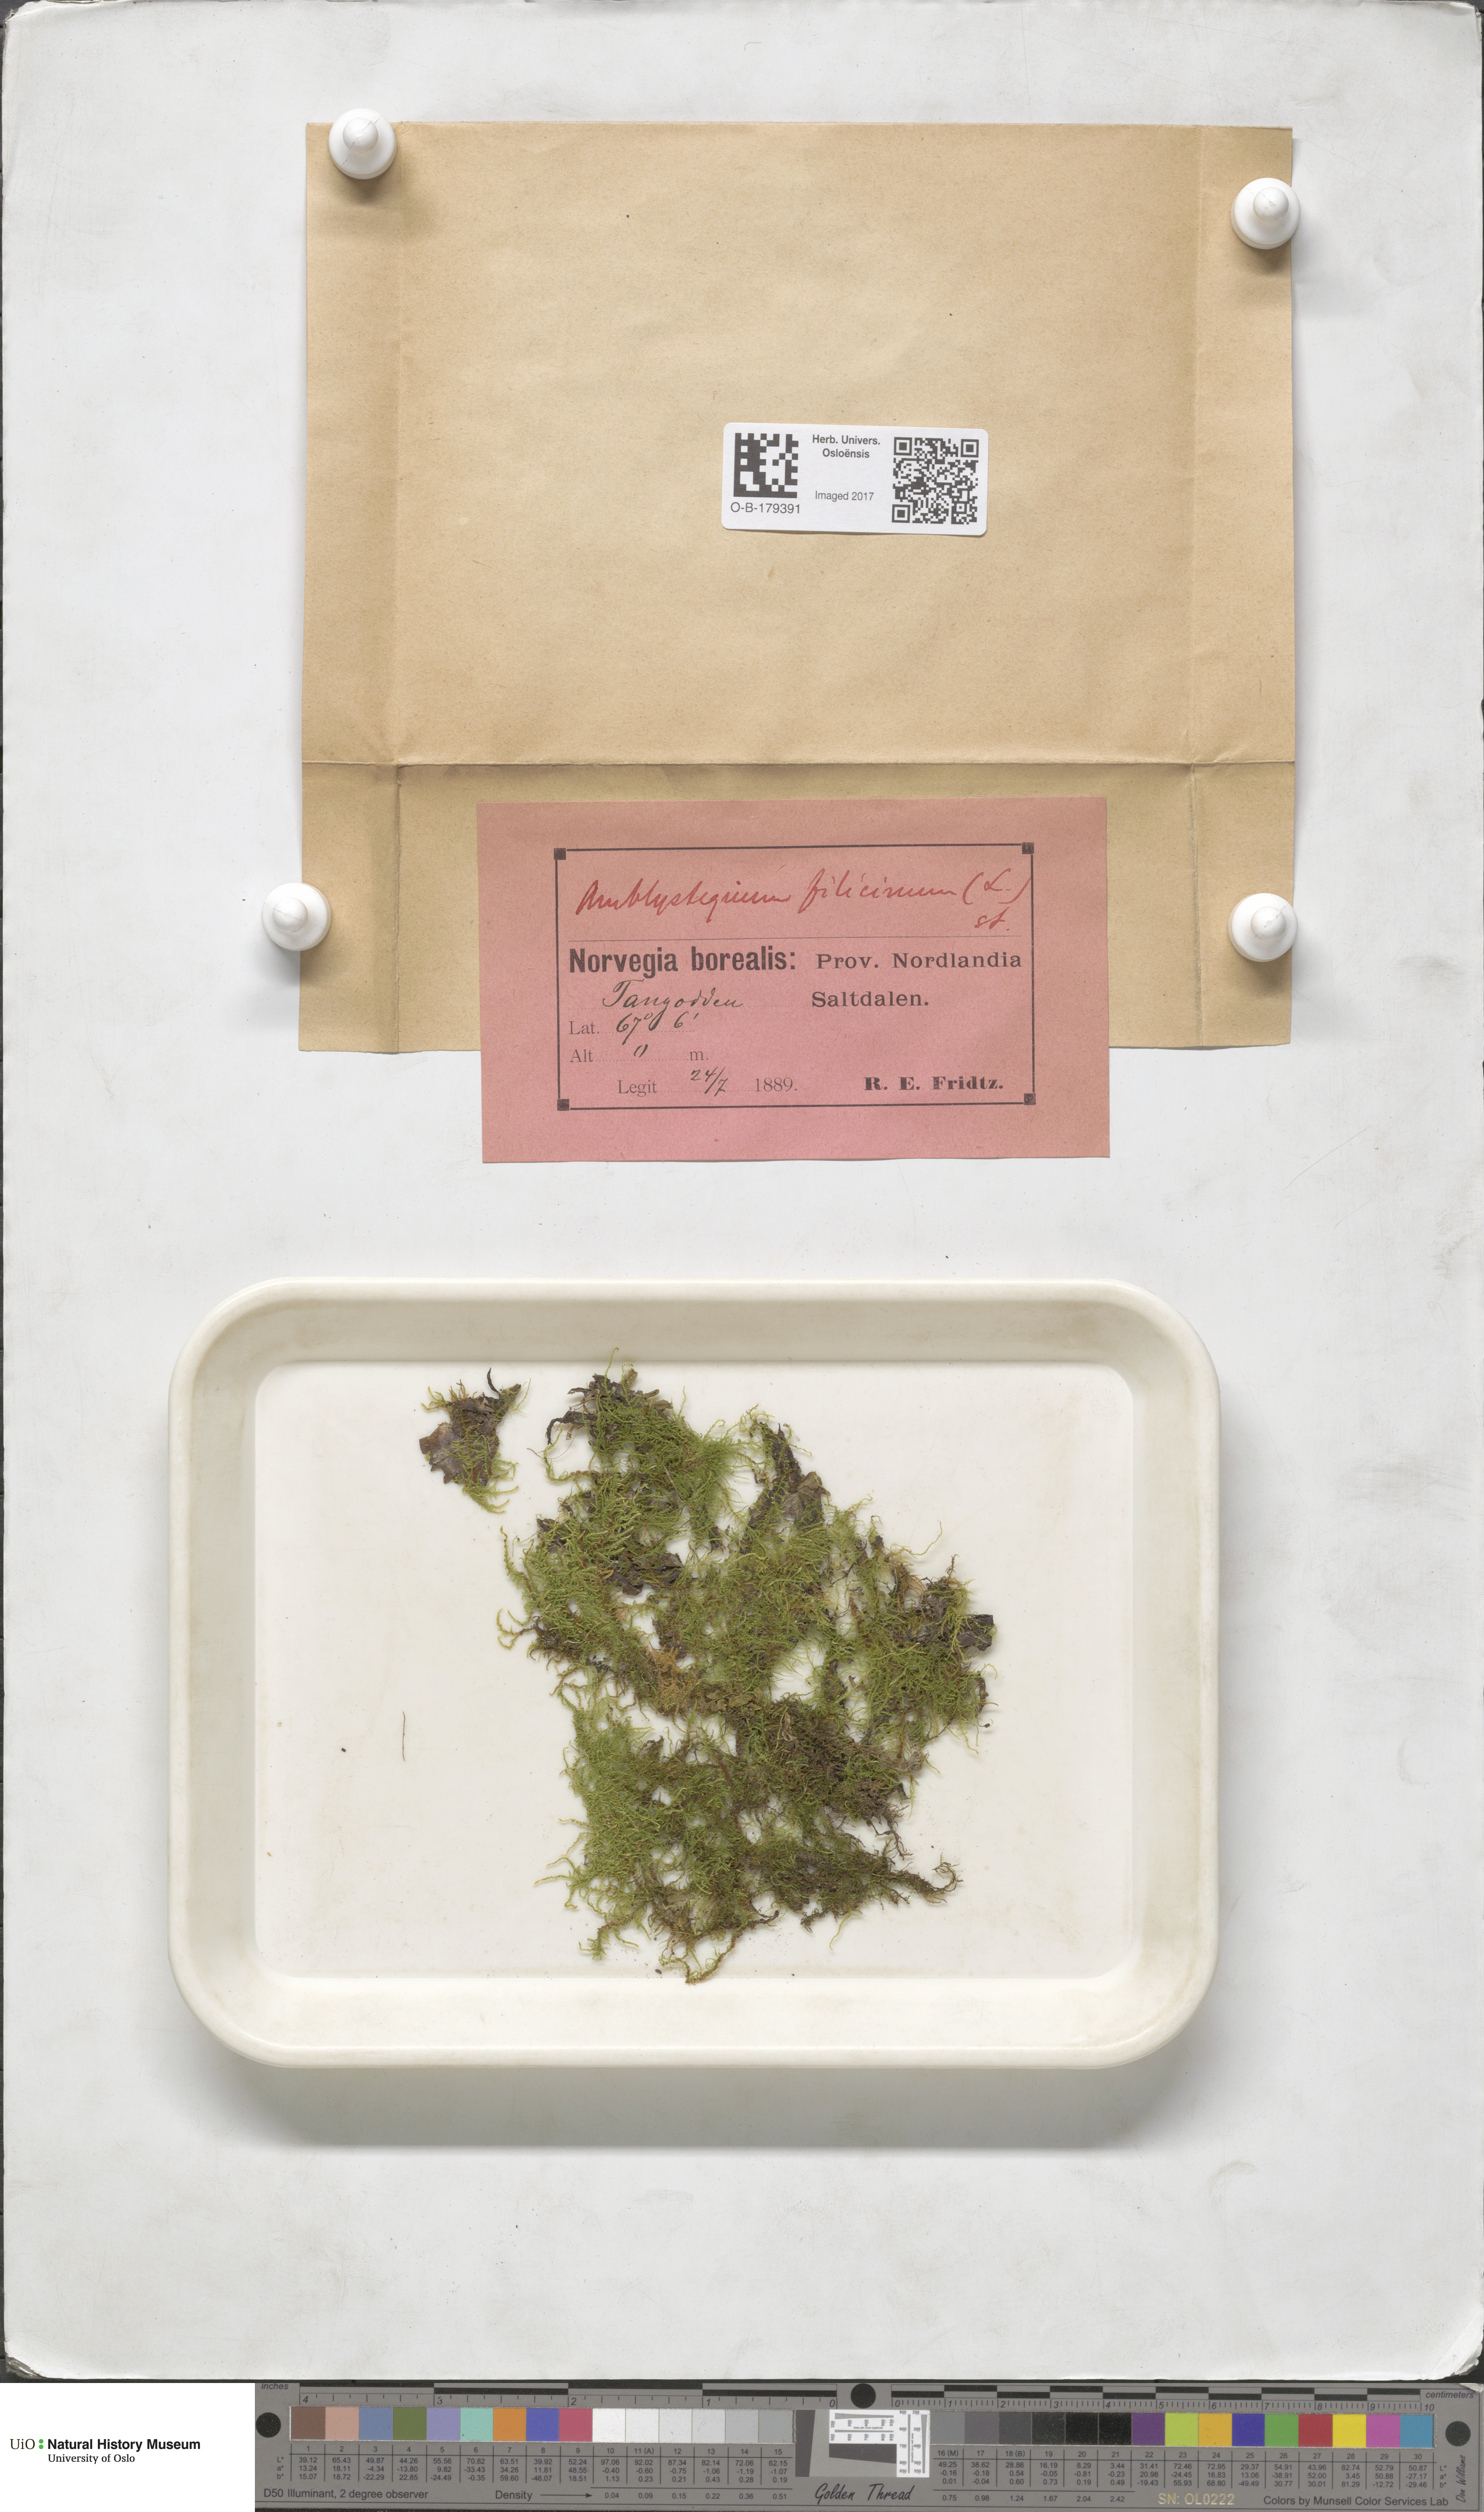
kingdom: Plantae
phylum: Bryophyta
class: Bryopsida
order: Hypnales
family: Amblystegiaceae
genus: Cratoneuron
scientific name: Cratoneuron filicinum
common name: Fern-leaved hook moss
